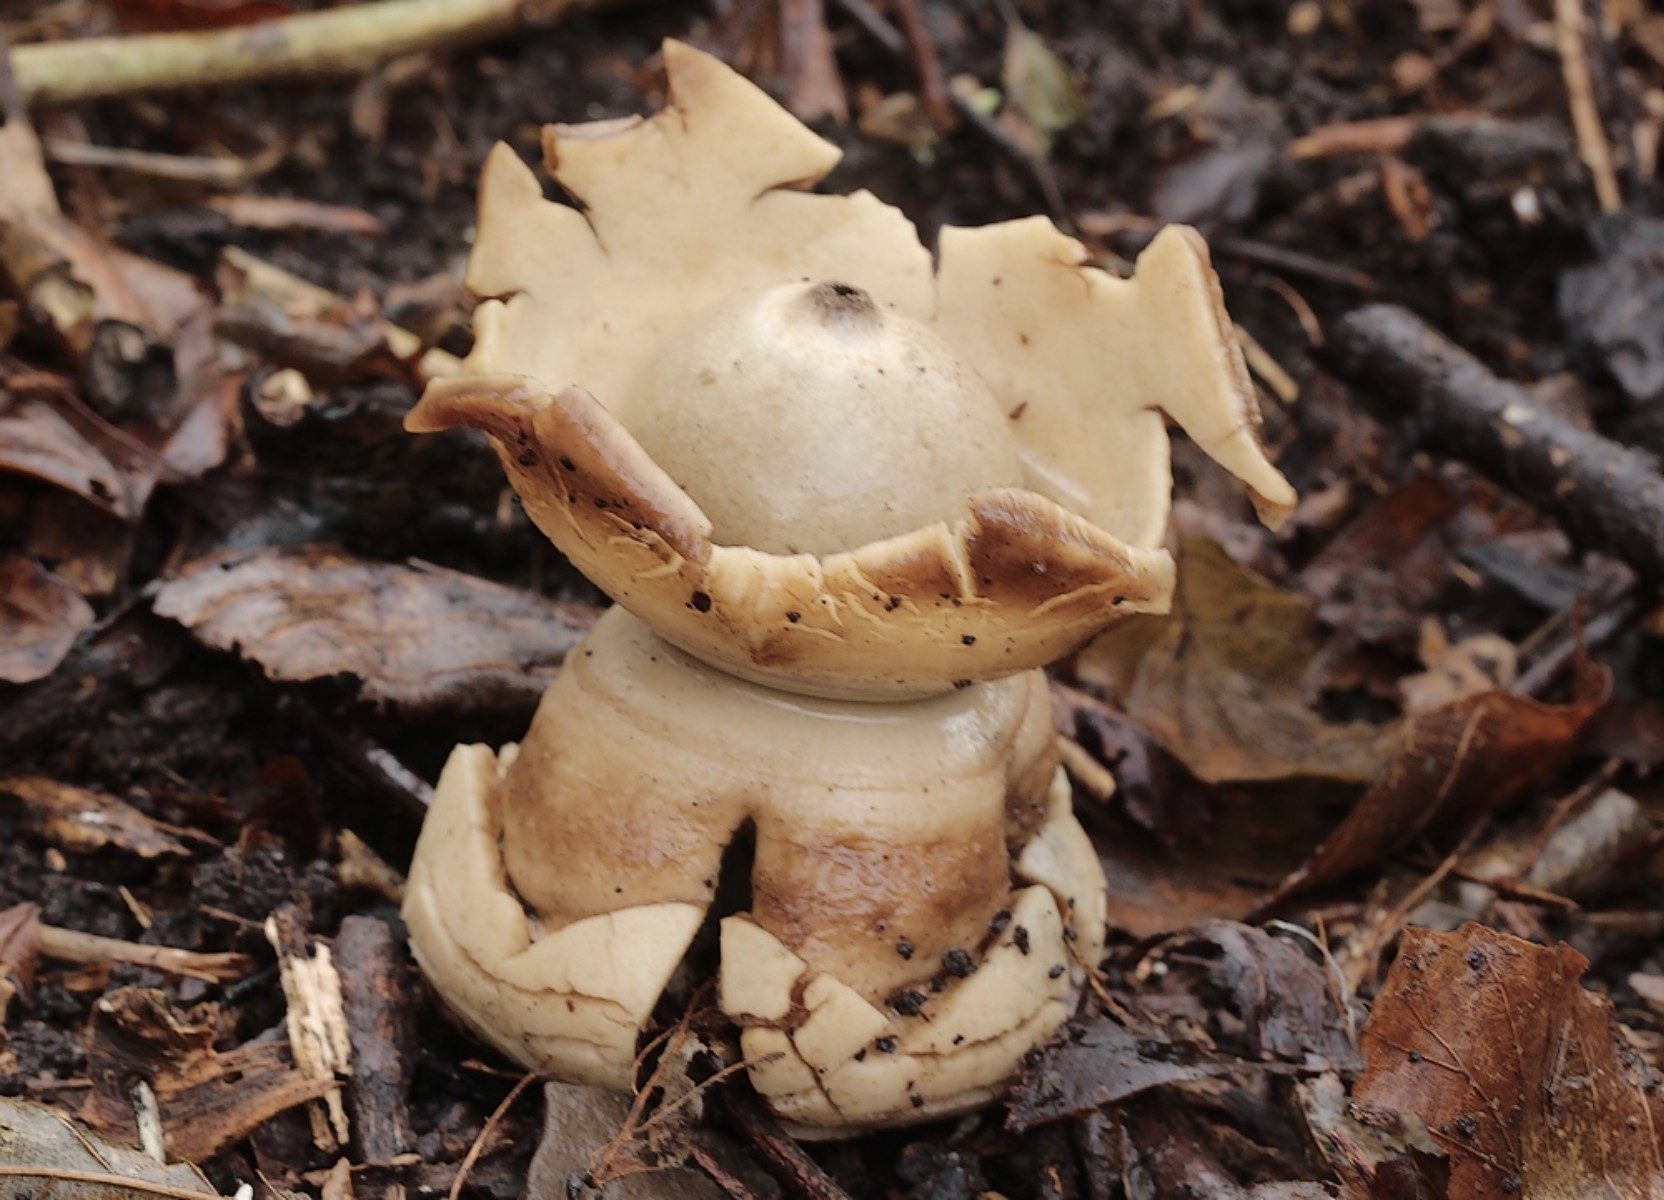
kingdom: Fungi
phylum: Basidiomycota
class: Agaricomycetes
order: Geastrales
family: Geastraceae
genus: Geastrum
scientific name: Geastrum michelianum
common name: kødet stjernebold
